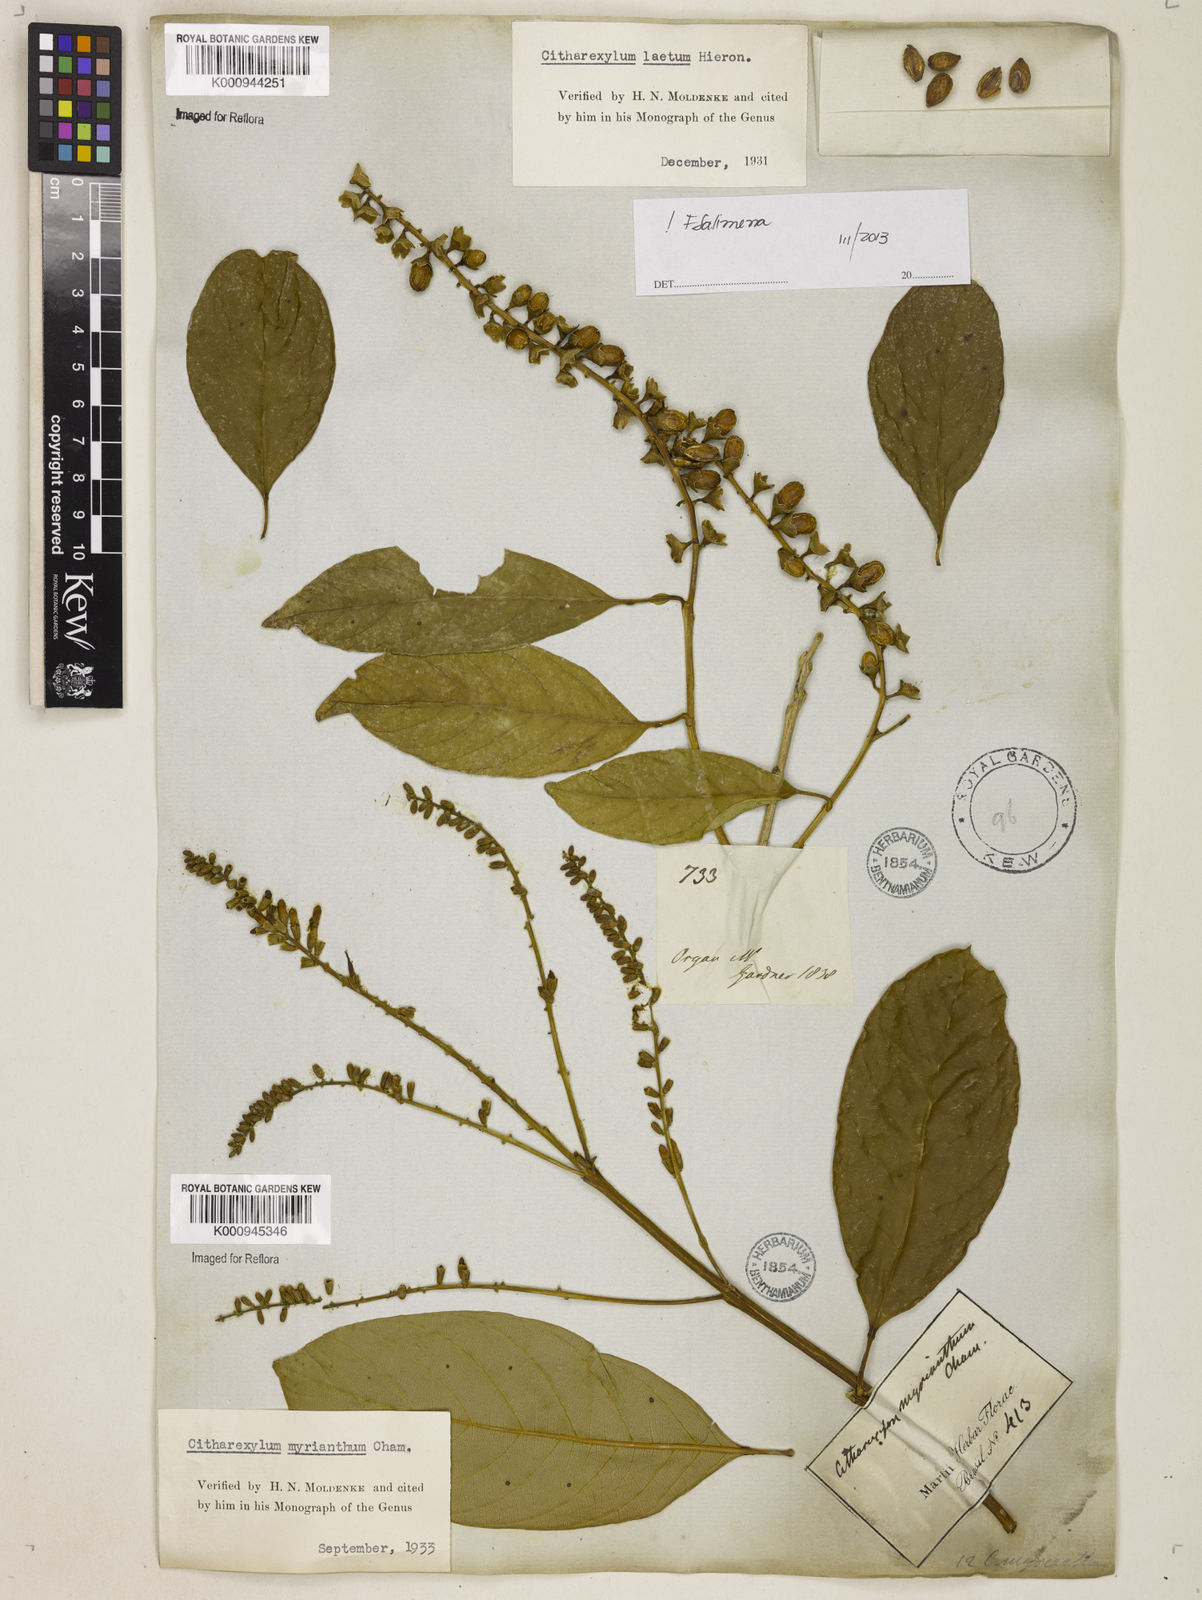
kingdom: Plantae
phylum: Tracheophyta
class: Magnoliopsida
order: Lamiales
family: Verbenaceae
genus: Citharexylum
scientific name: Citharexylum myrianthum
